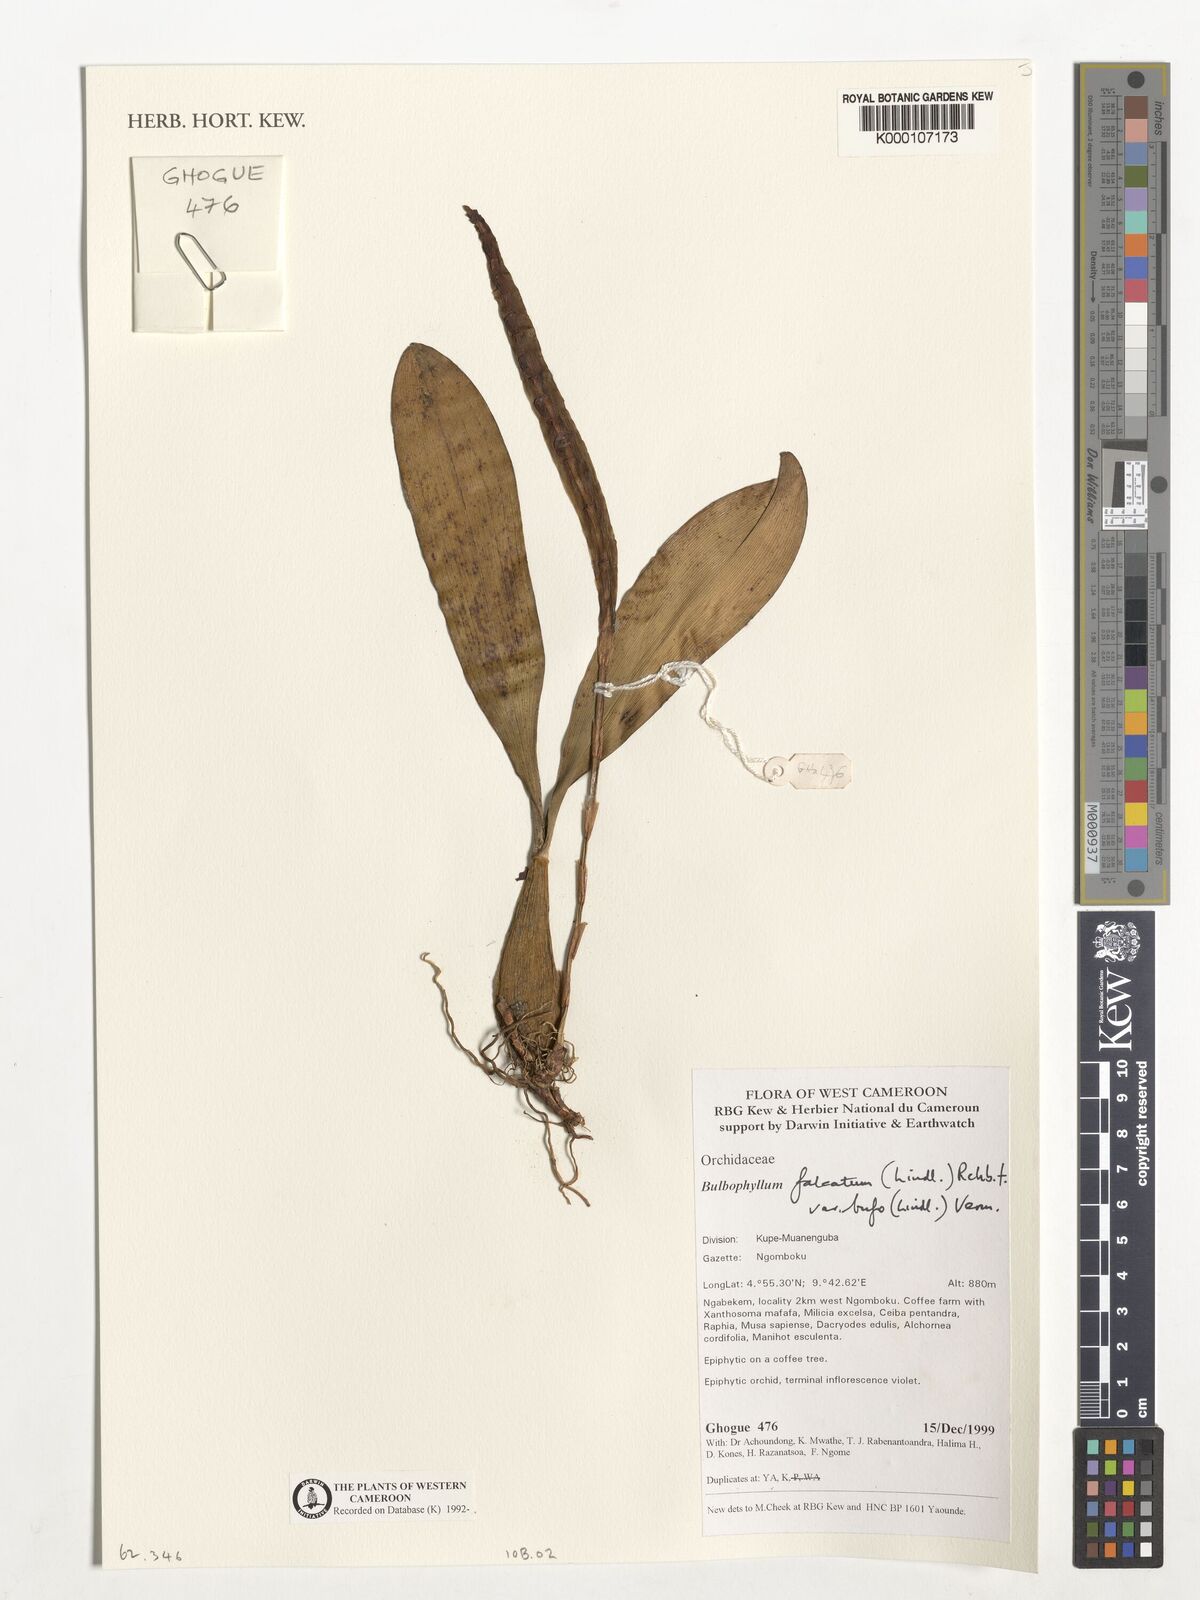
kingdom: Plantae
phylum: Tracheophyta
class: Liliopsida
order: Asparagales
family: Orchidaceae
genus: Bulbophyllum
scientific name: Bulbophyllum falcatum
